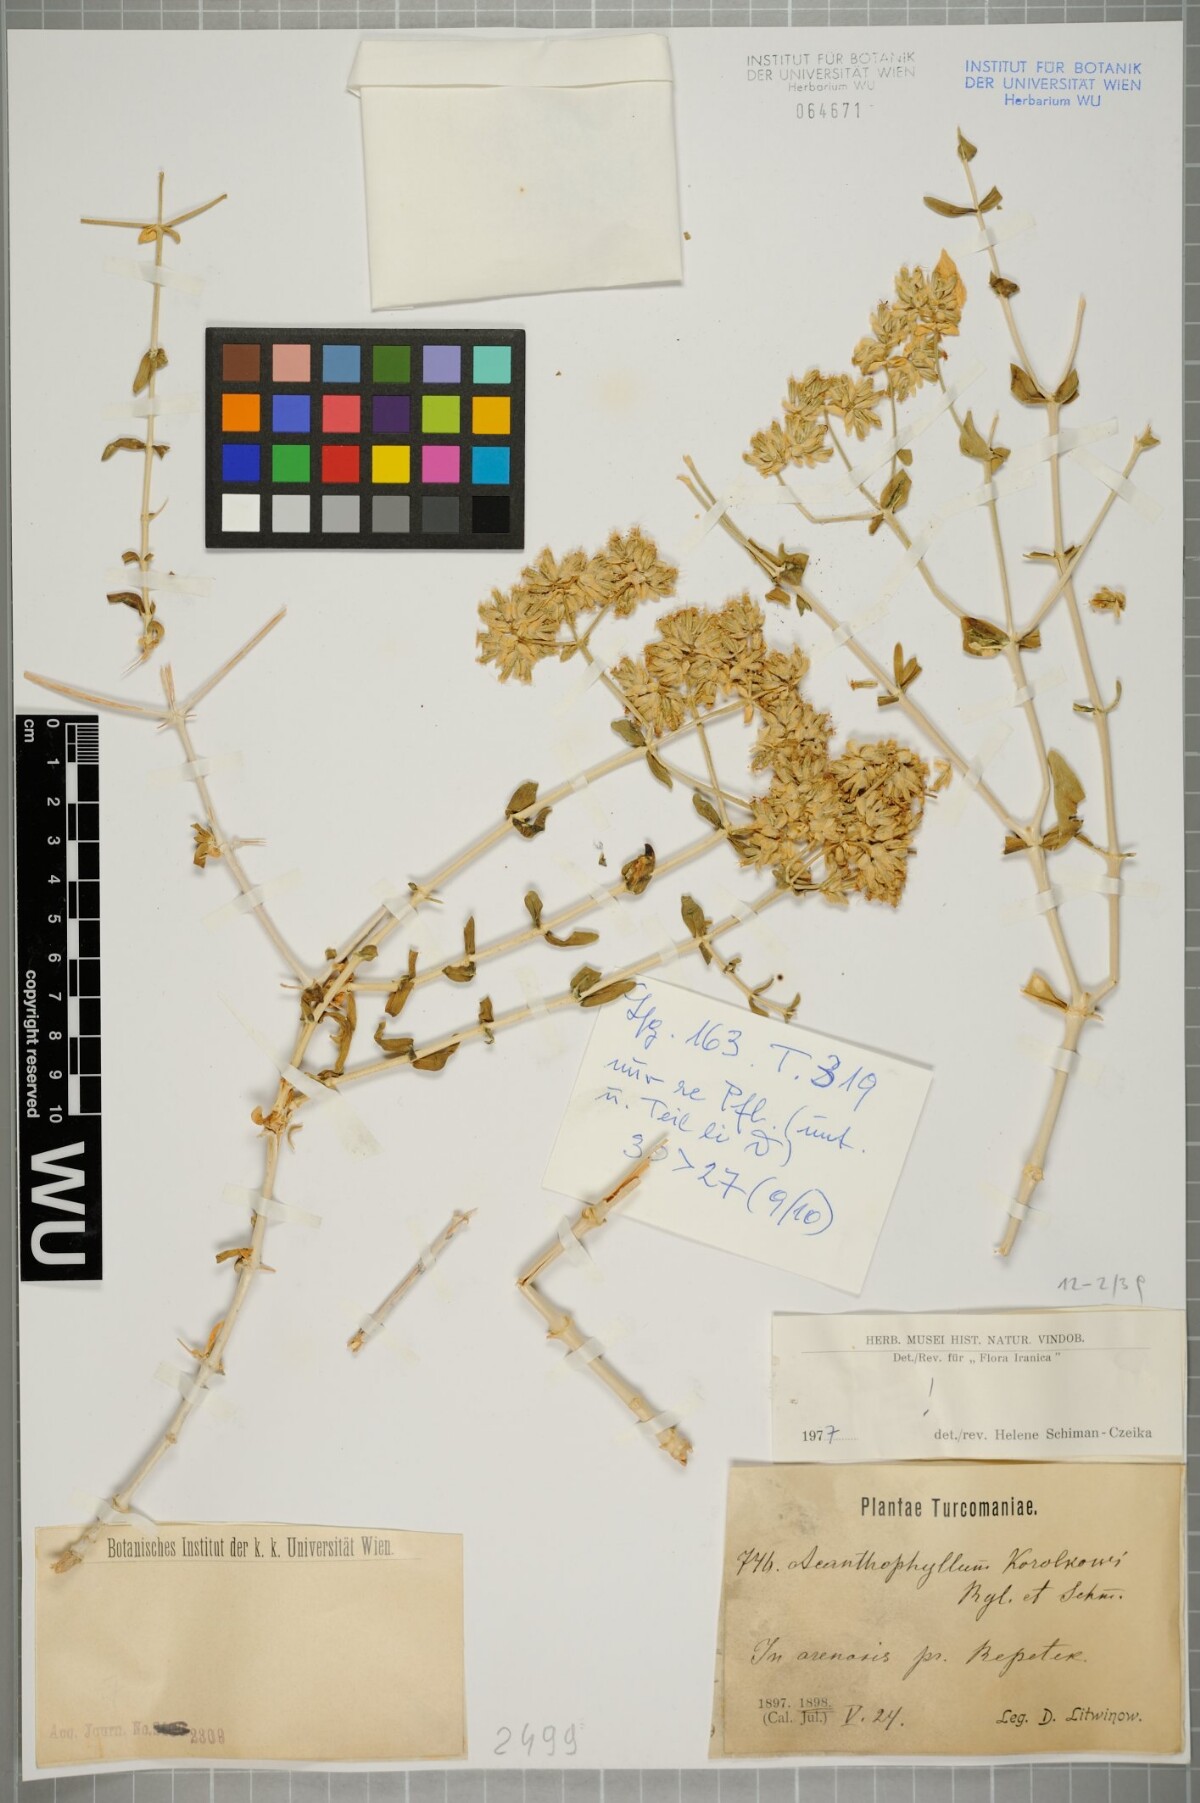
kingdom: Plantae
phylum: Tracheophyta
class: Magnoliopsida
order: Caryophyllales
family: Caryophyllaceae
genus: Acanthophyllum
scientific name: Acanthophyllum korolkowii
